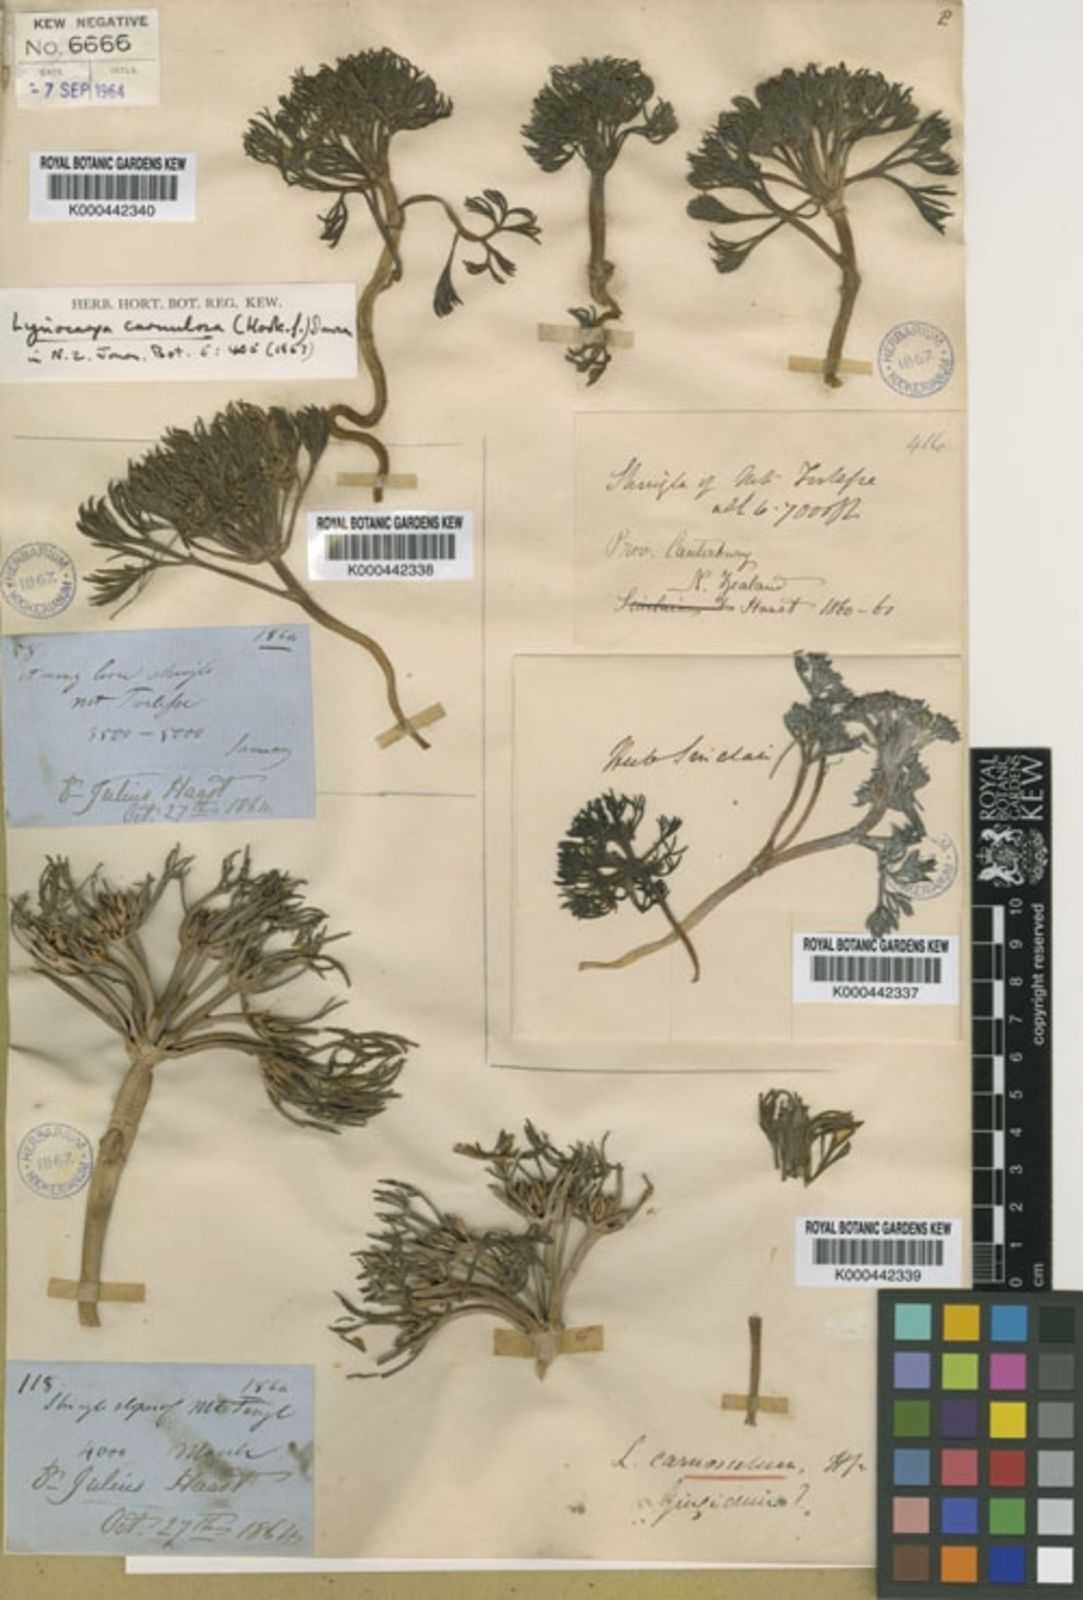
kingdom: Plantae
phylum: Tracheophyta
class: Magnoliopsida
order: Apiales
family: Apiaceae
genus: Lignocarpa
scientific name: Lignocarpa
